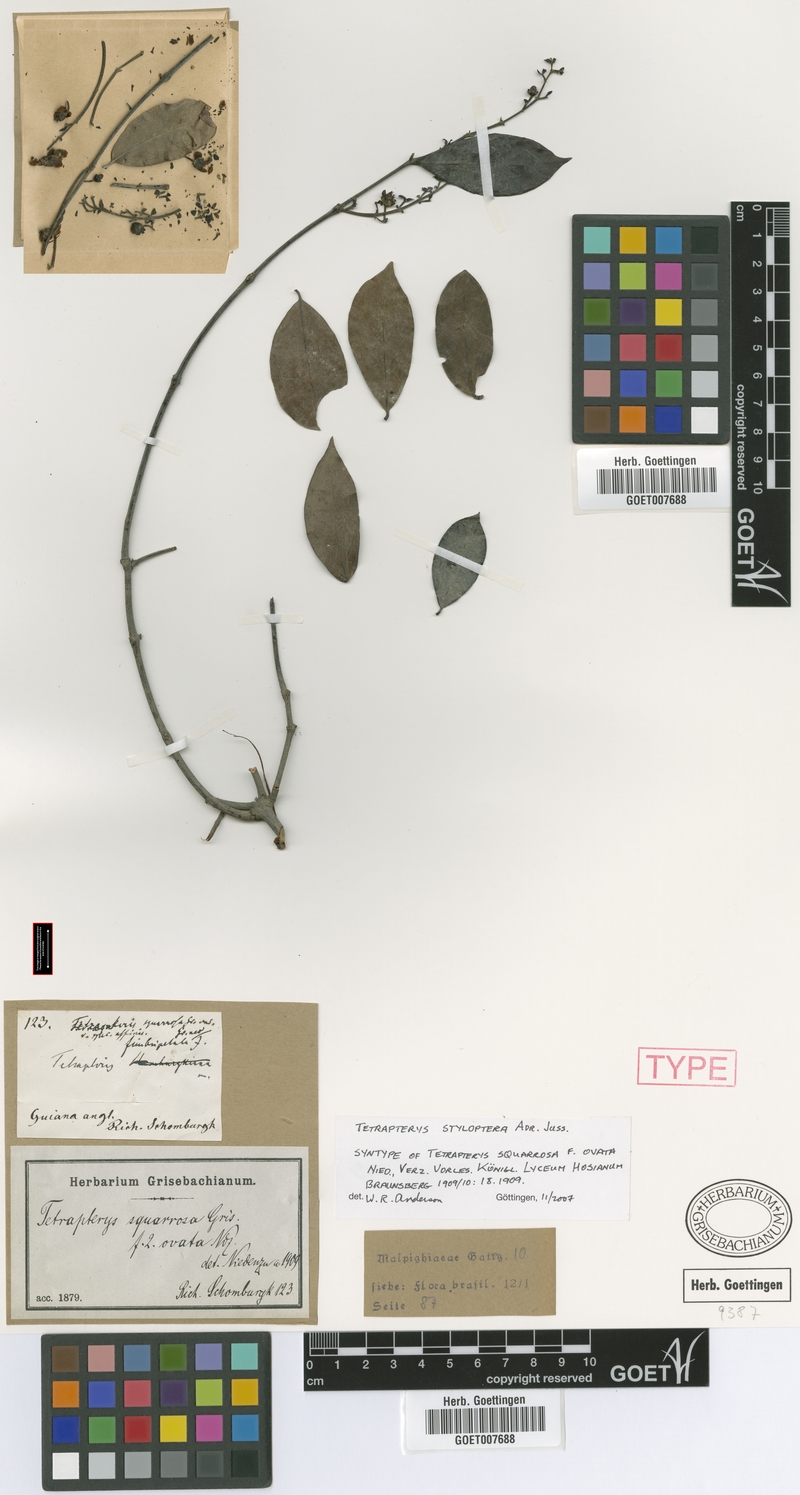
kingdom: Plantae
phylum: Tracheophyta
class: Magnoliopsida
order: Malpighiales
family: Malpighiaceae
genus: Glicophyllum
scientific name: Glicophyllum stylopterum
